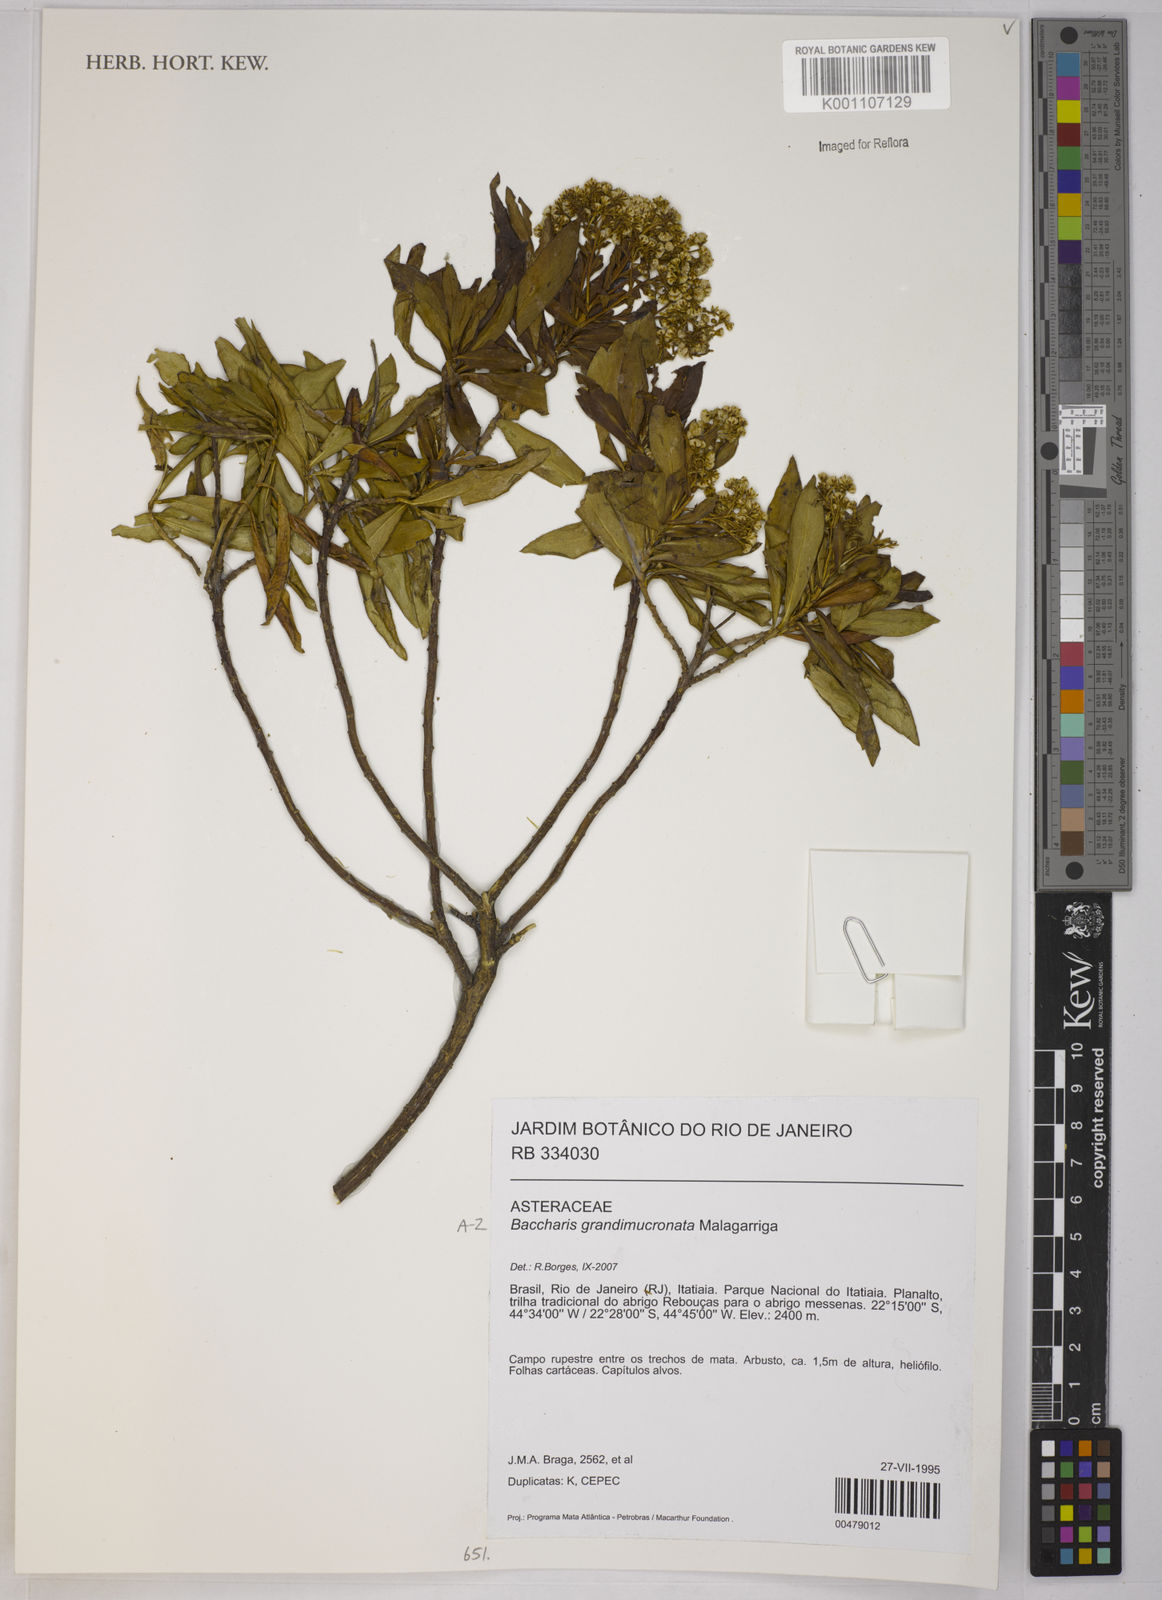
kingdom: Plantae
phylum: Tracheophyta
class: Magnoliopsida
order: Asterales
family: Asteraceae
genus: Baccharis
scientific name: Baccharis grandimucronata
